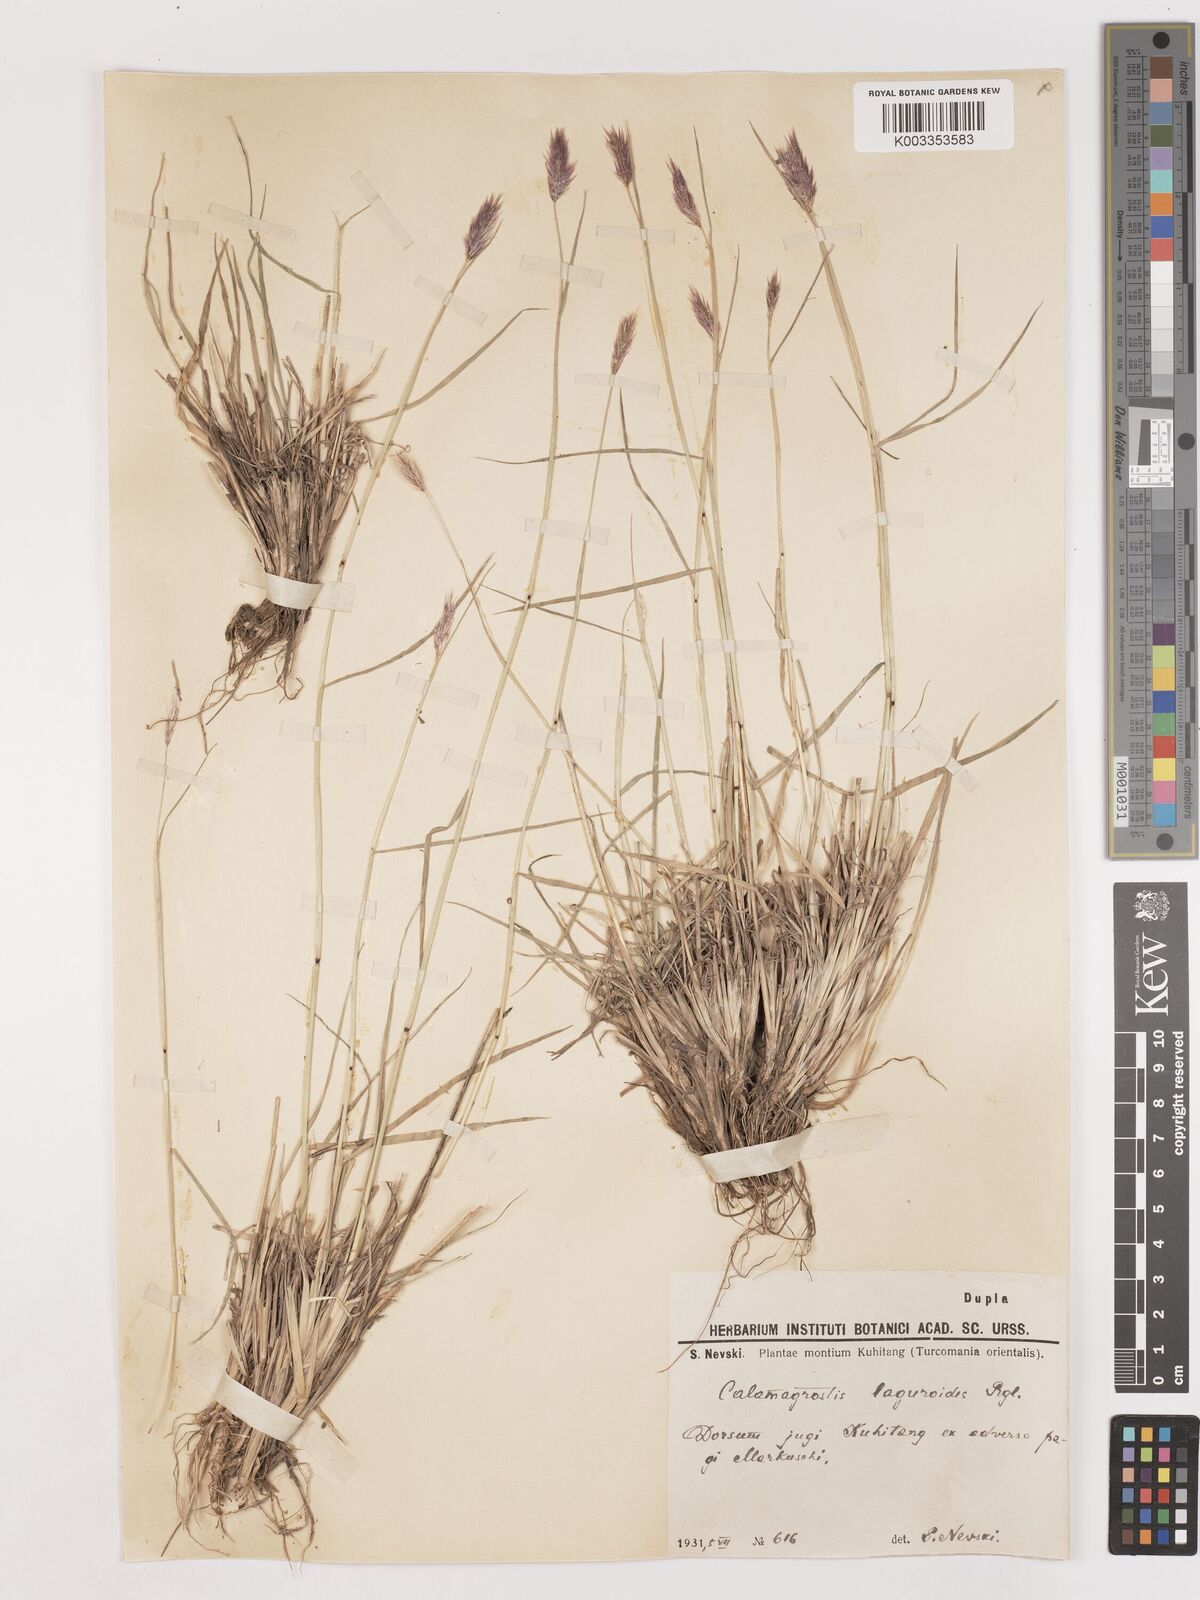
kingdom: Plantae
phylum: Tracheophyta
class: Liliopsida
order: Poales
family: Poaceae
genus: Calamagrostis
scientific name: Calamagrostis anthoxanthoides
